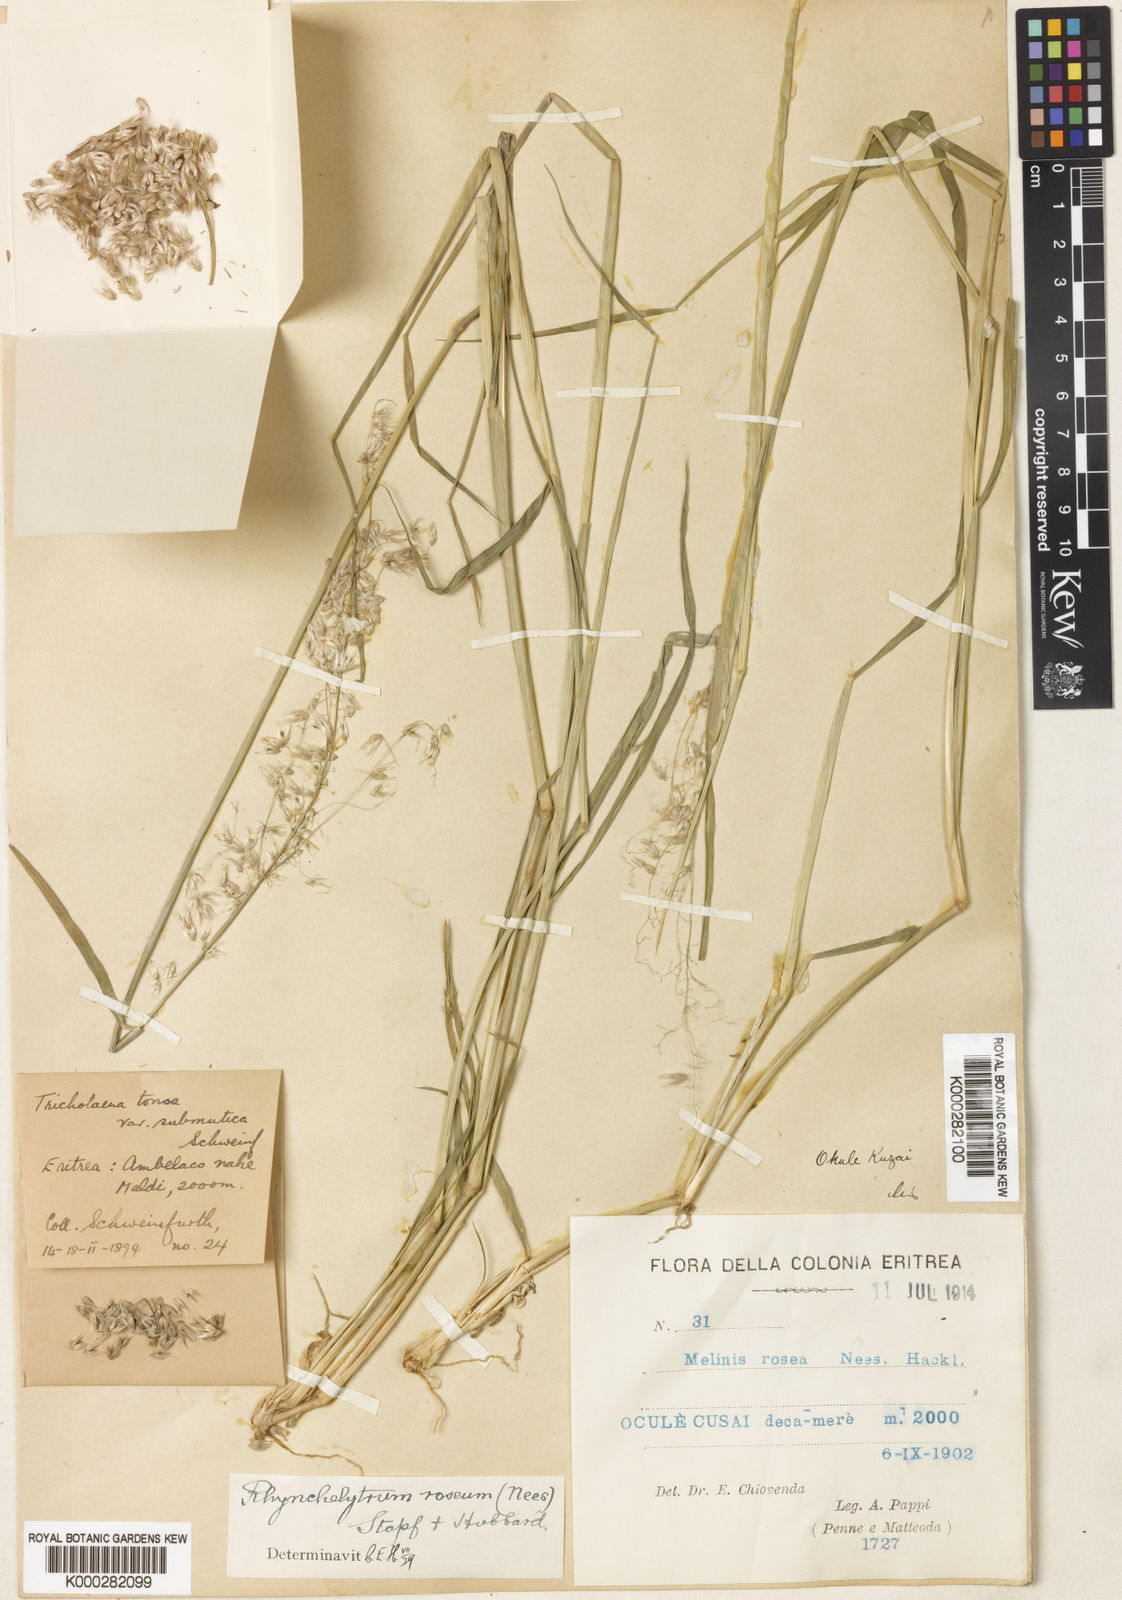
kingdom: Plantae
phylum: Tracheophyta
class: Liliopsida
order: Poales
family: Poaceae
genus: Melinis
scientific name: Melinis repens
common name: Rose natal grass
